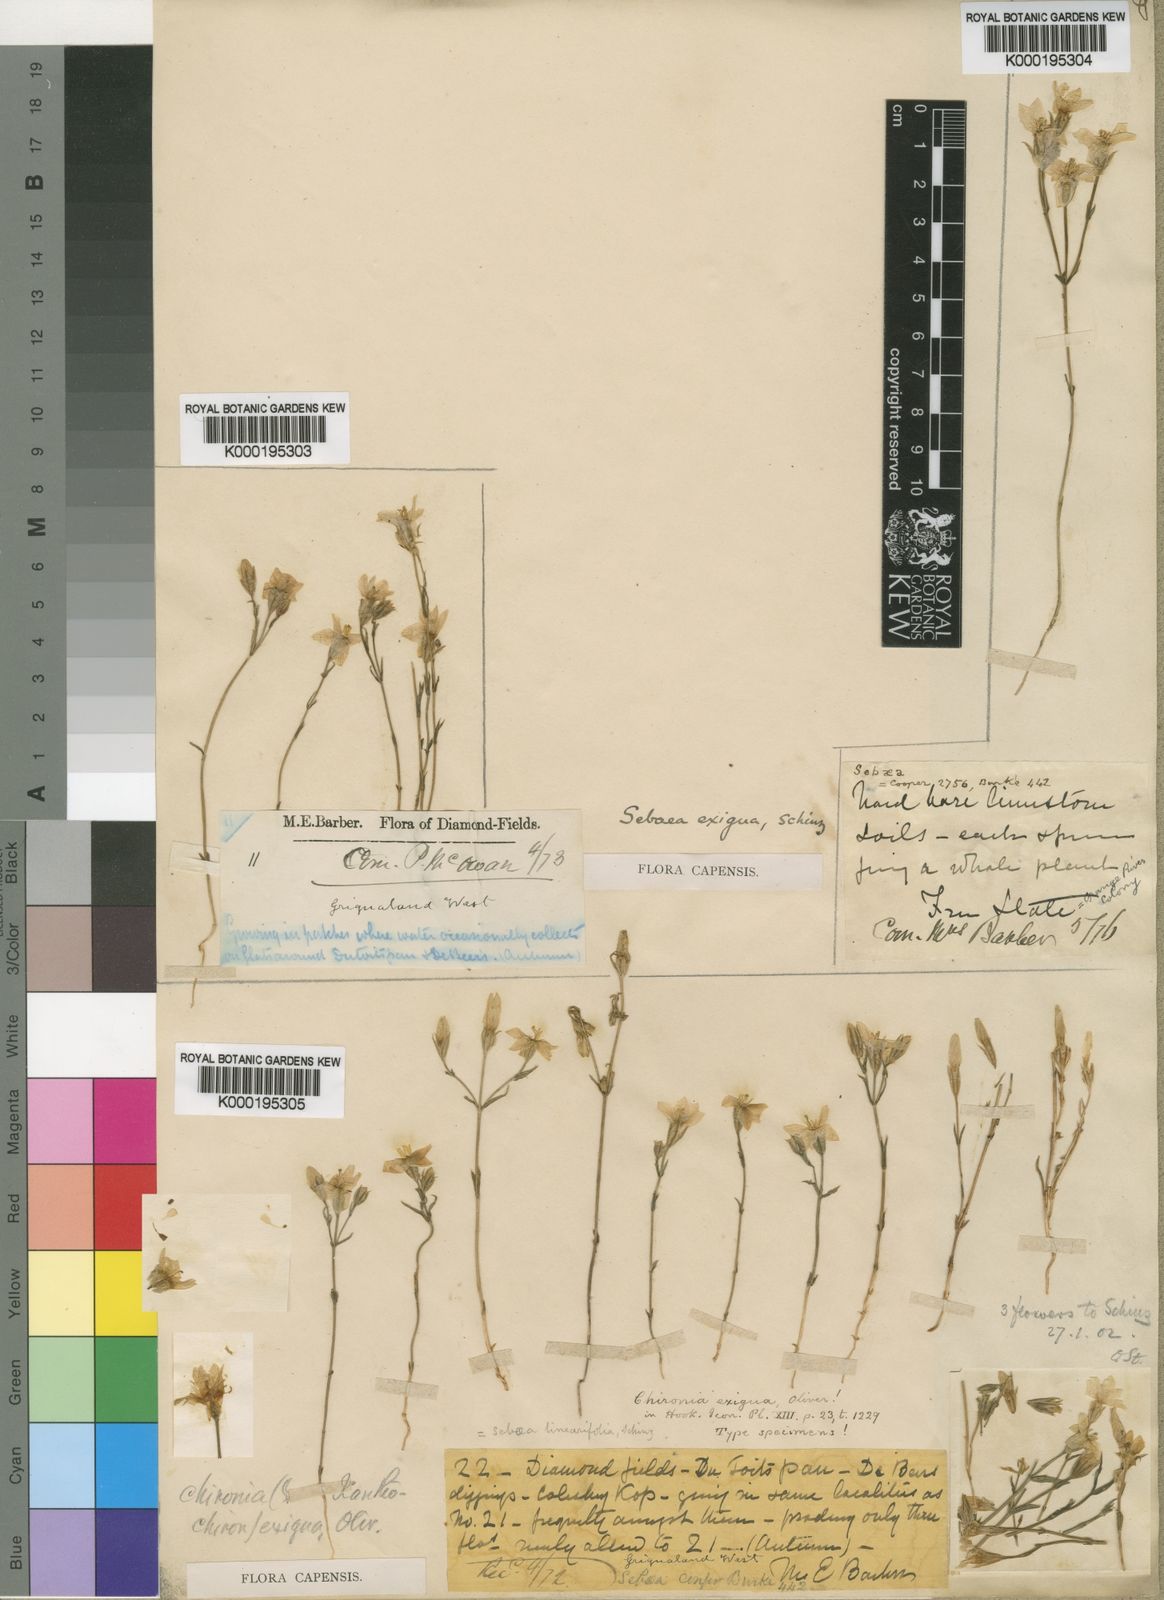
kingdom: Plantae
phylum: Tracheophyta
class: Magnoliopsida
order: Gentianales
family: Gentianaceae
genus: Sebaea
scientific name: Sebaea exigua
